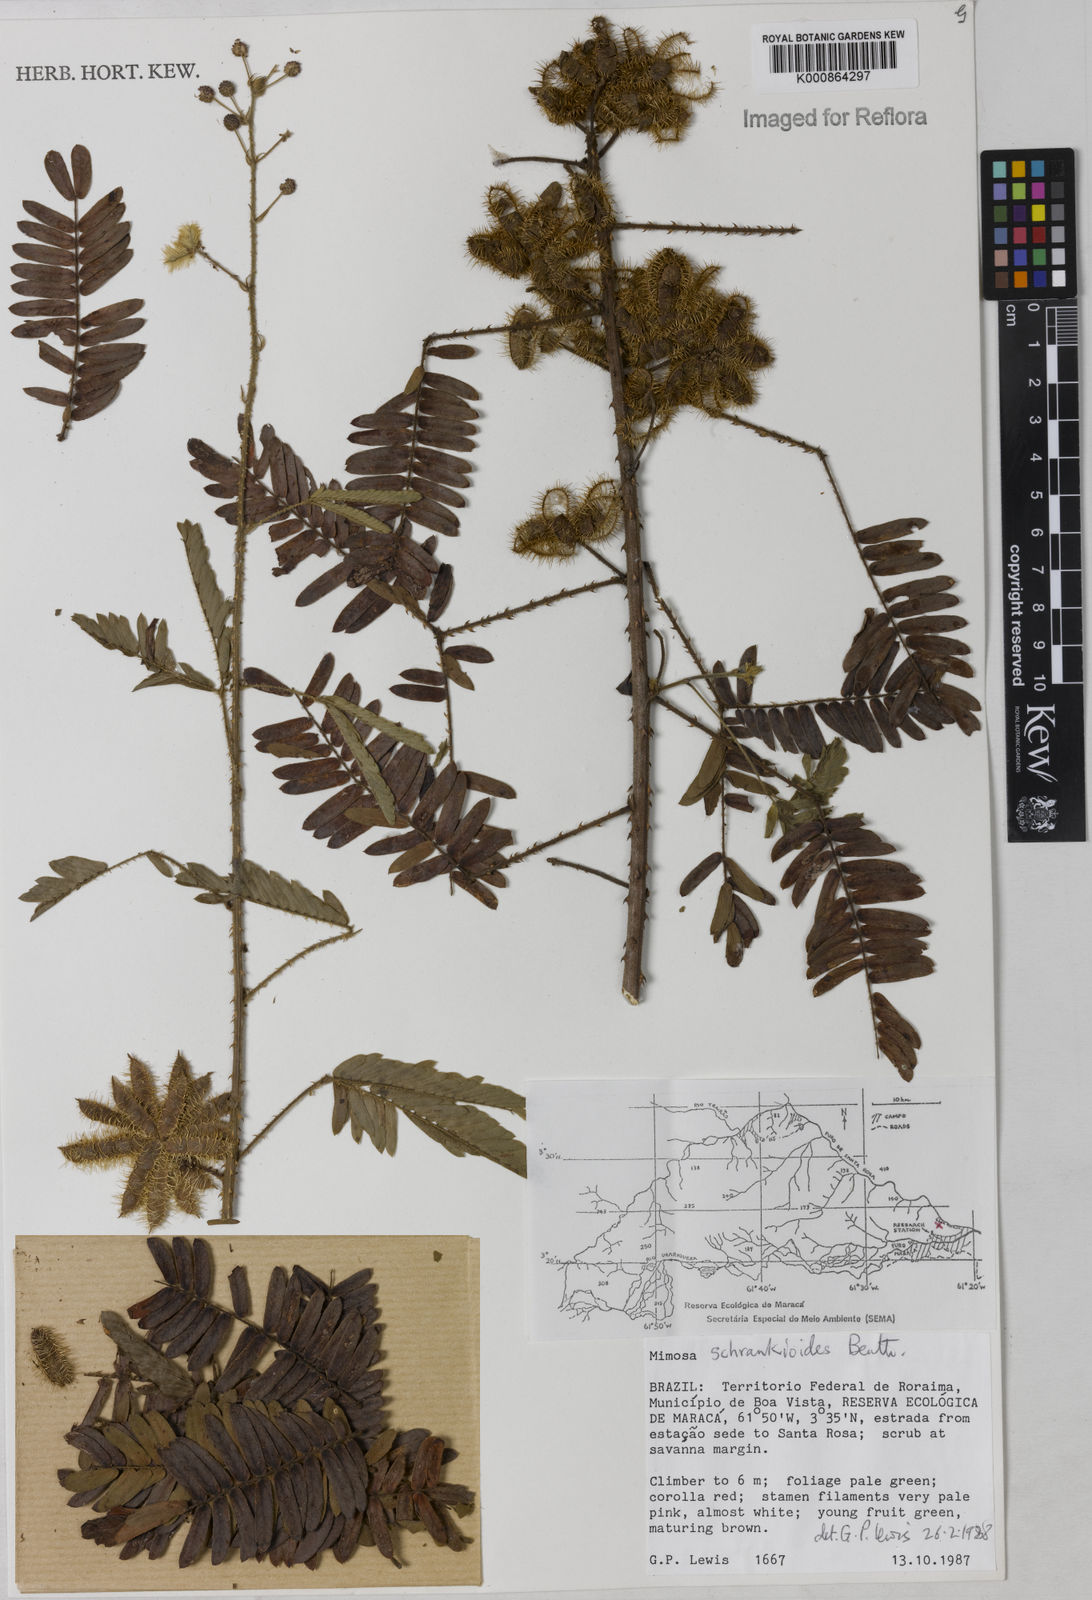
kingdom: Plantae
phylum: Tracheophyta
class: Magnoliopsida
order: Fabales
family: Fabaceae
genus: Mimosa
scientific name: Mimosa schrankioides
